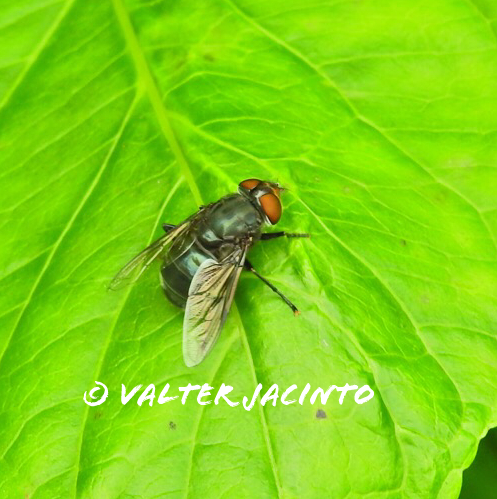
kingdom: Animalia
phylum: Arthropoda
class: Insecta
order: Diptera
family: Syrphidae
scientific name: Syrphidae
